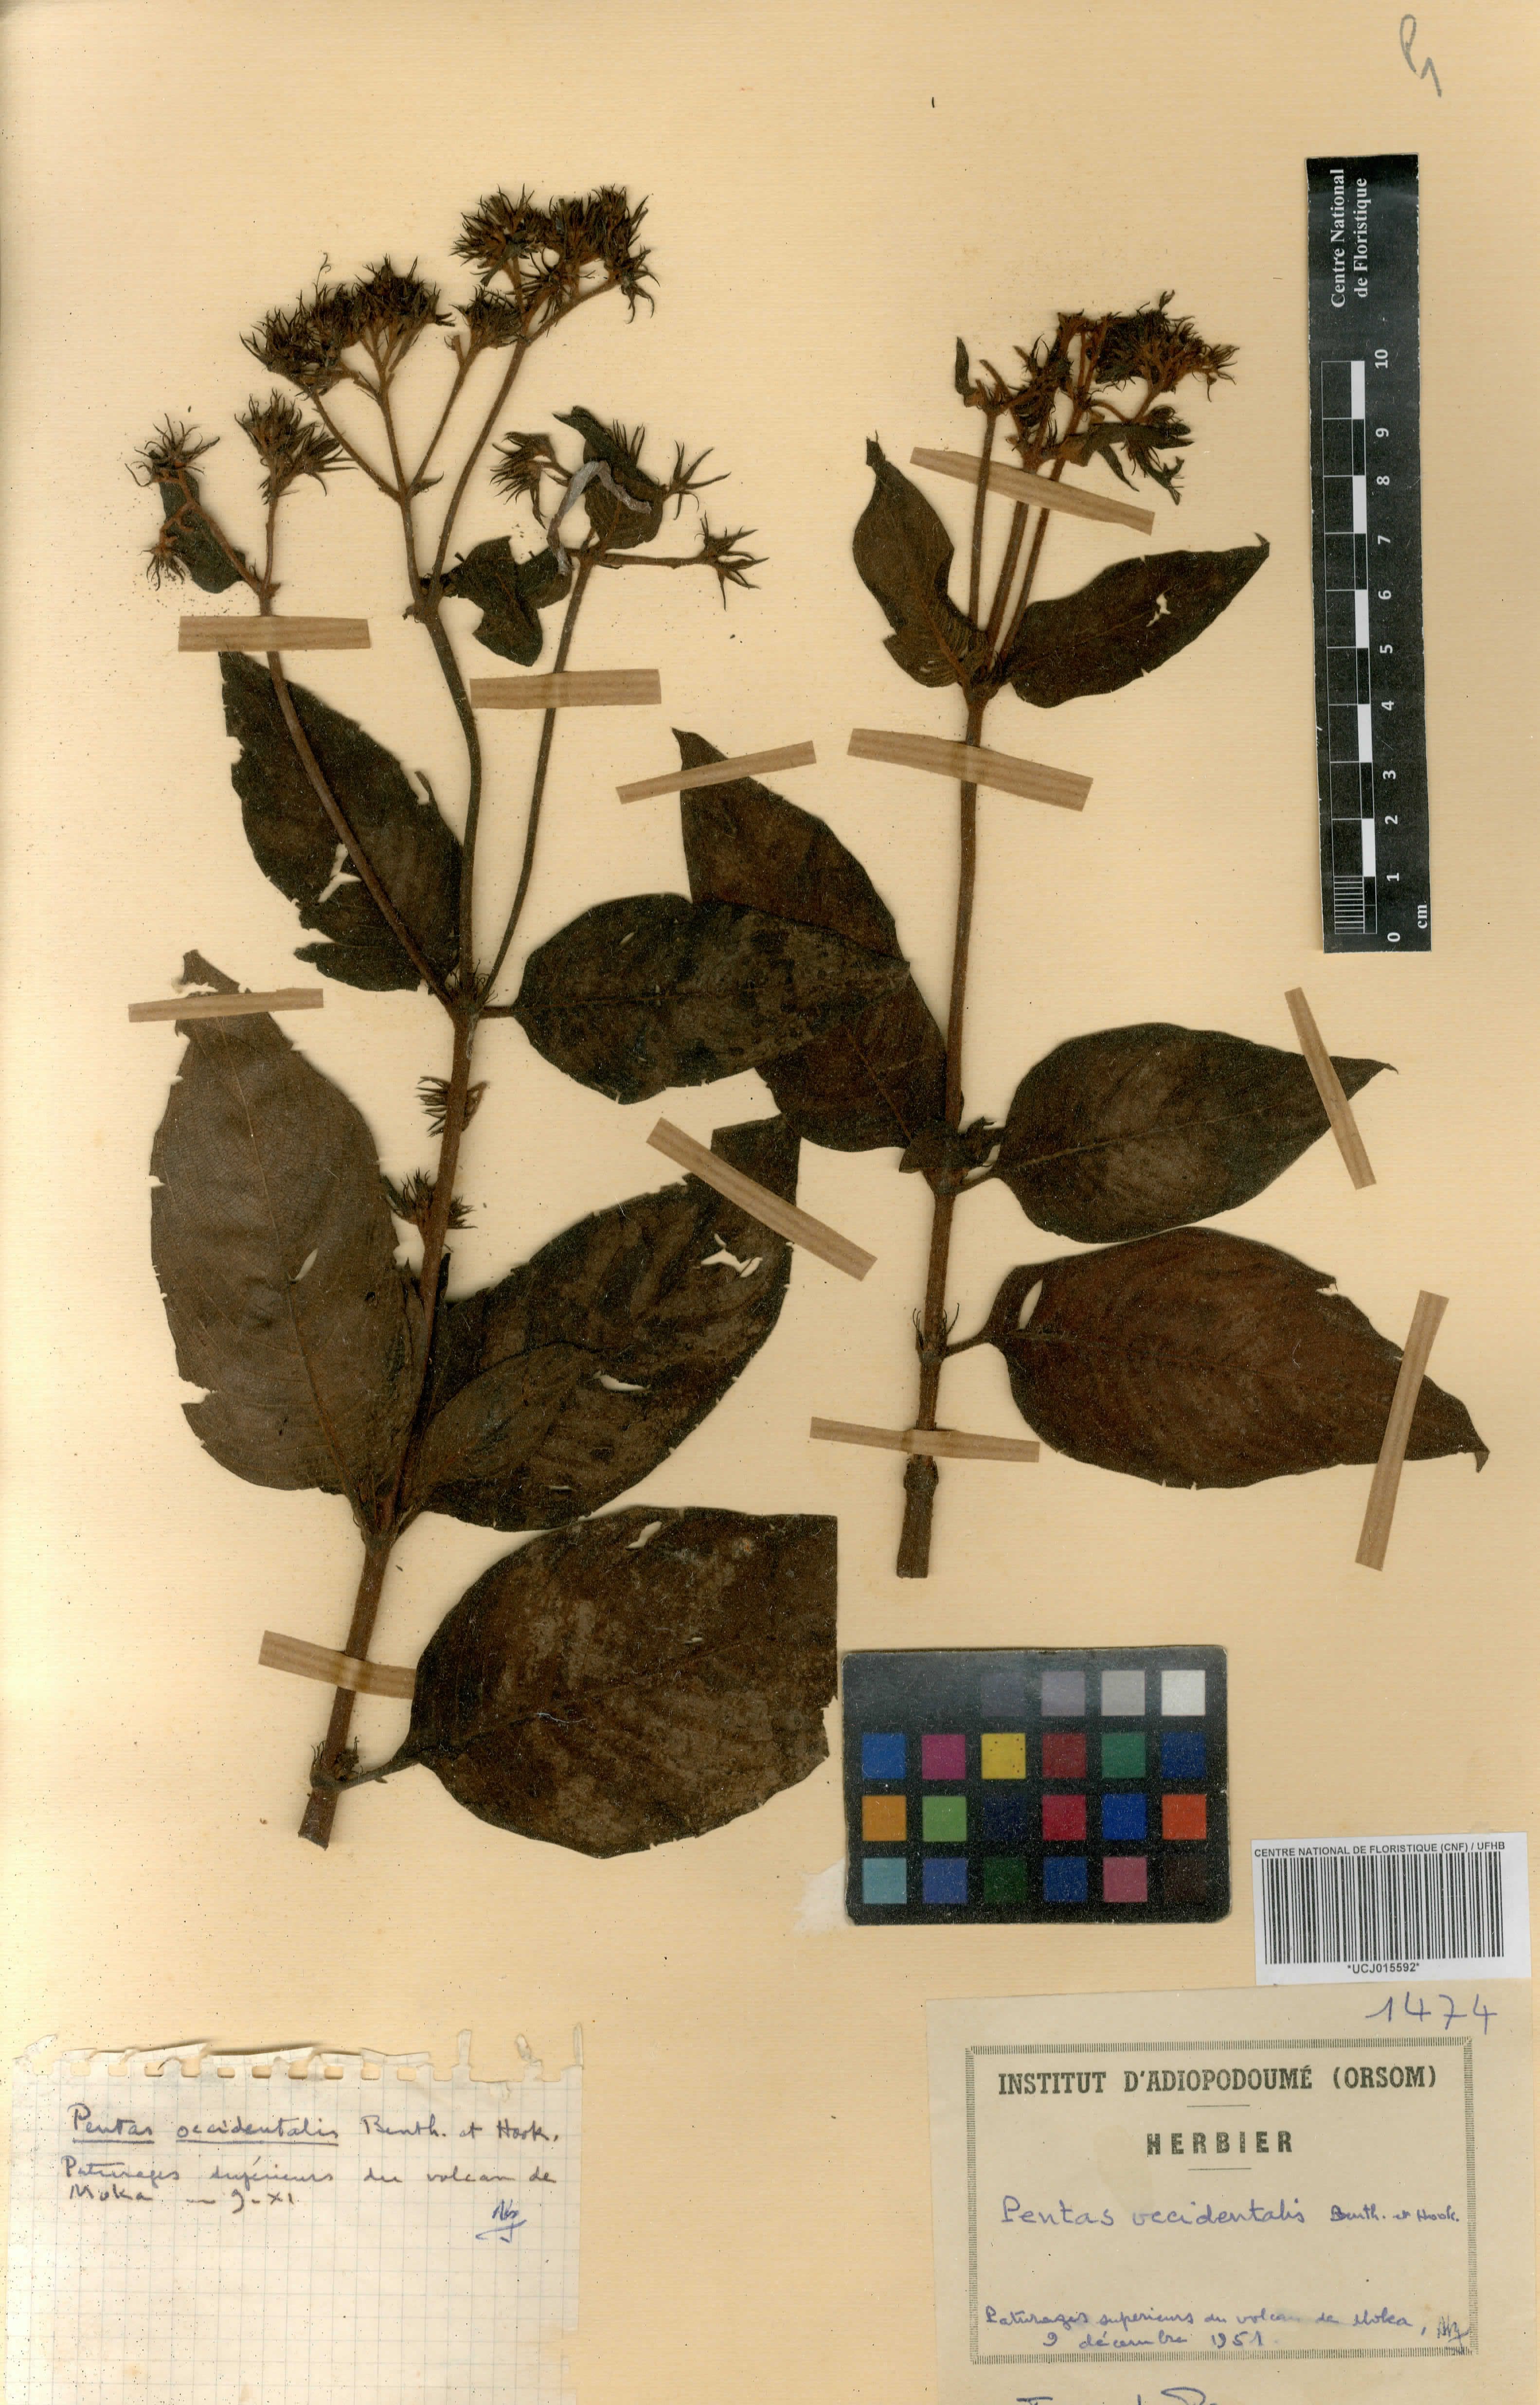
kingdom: Plantae
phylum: Tracheophyta
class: Magnoliopsida
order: Gentianales
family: Rubiaceae
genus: Phyllopentas
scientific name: Phyllopentas schimperi
